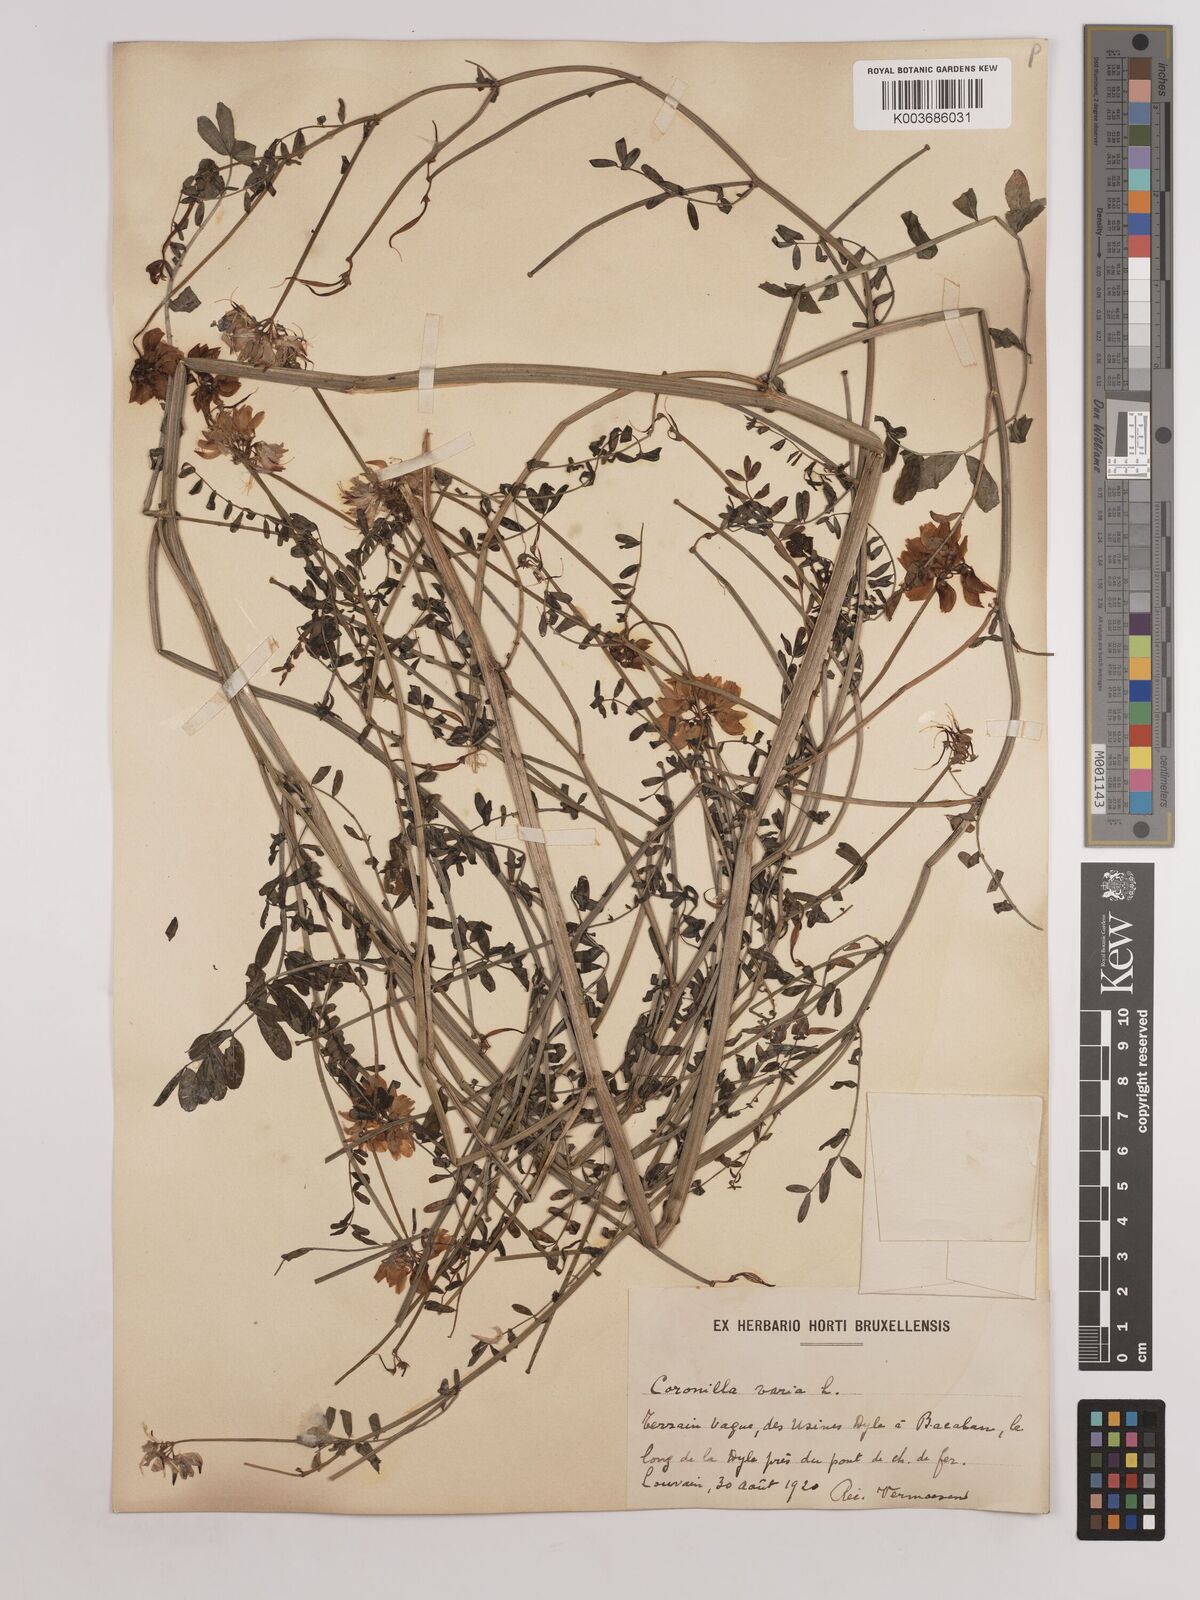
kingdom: Plantae
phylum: Tracheophyta
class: Magnoliopsida
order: Fabales
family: Fabaceae
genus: Coronilla
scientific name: Coronilla varia
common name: Crownvetch
